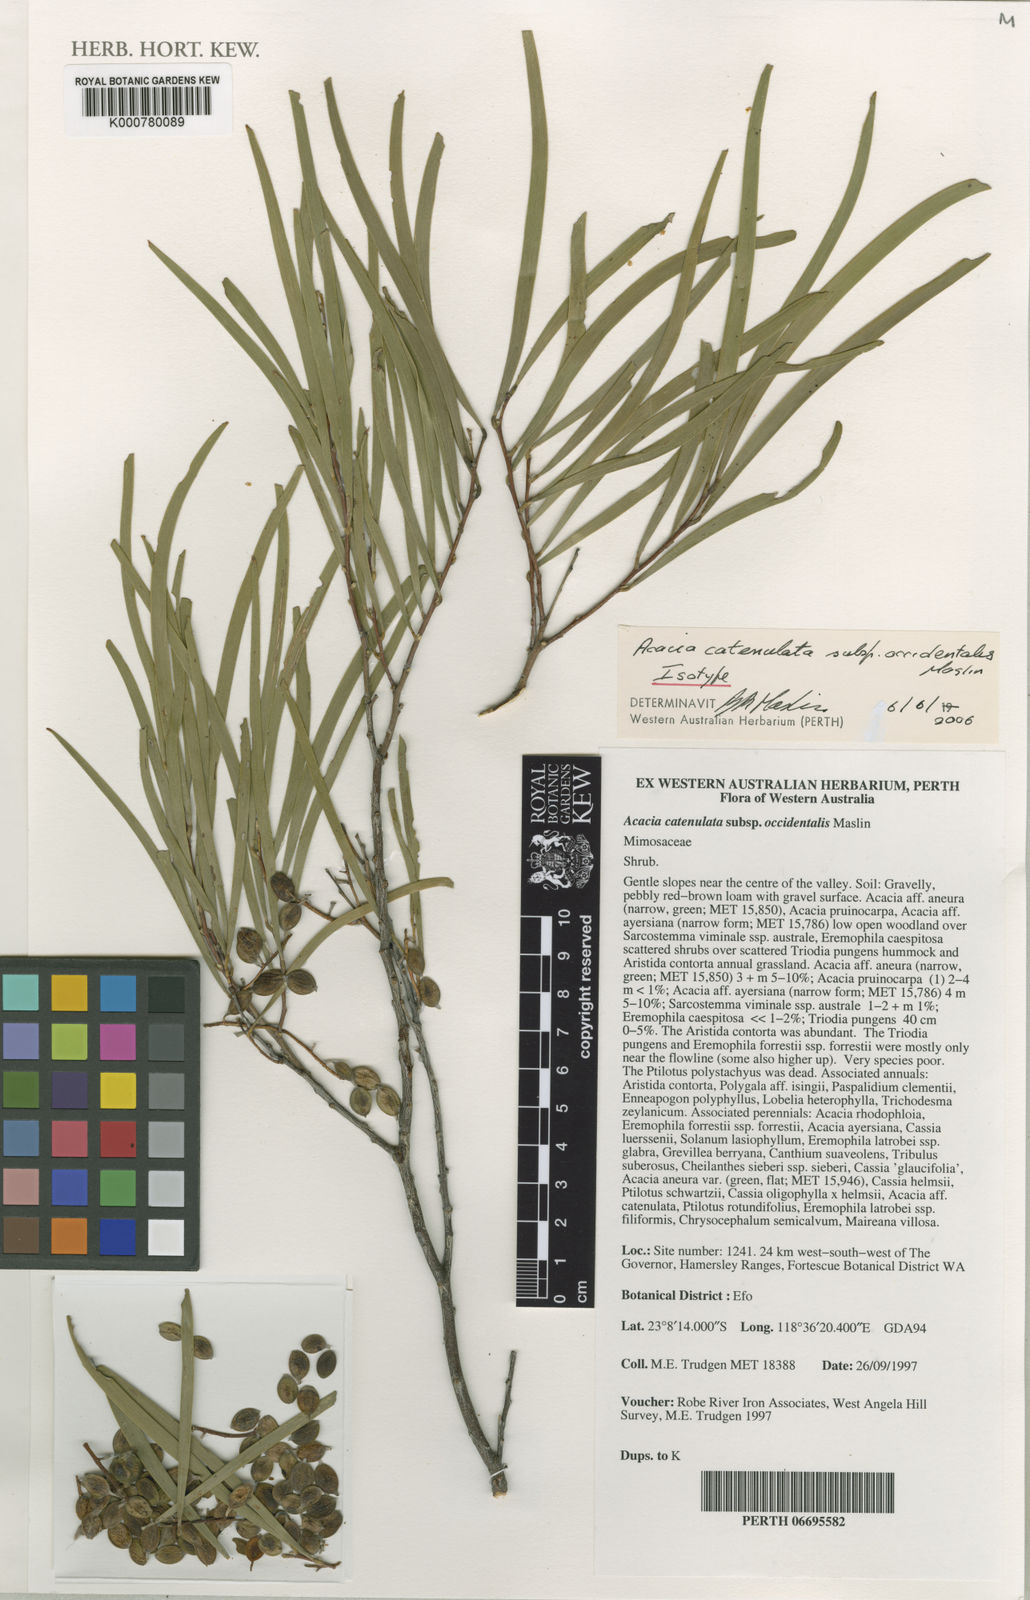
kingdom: Plantae
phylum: Tracheophyta
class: Magnoliopsida
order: Fabales
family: Fabaceae
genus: Acacia
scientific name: Acacia catenulata
